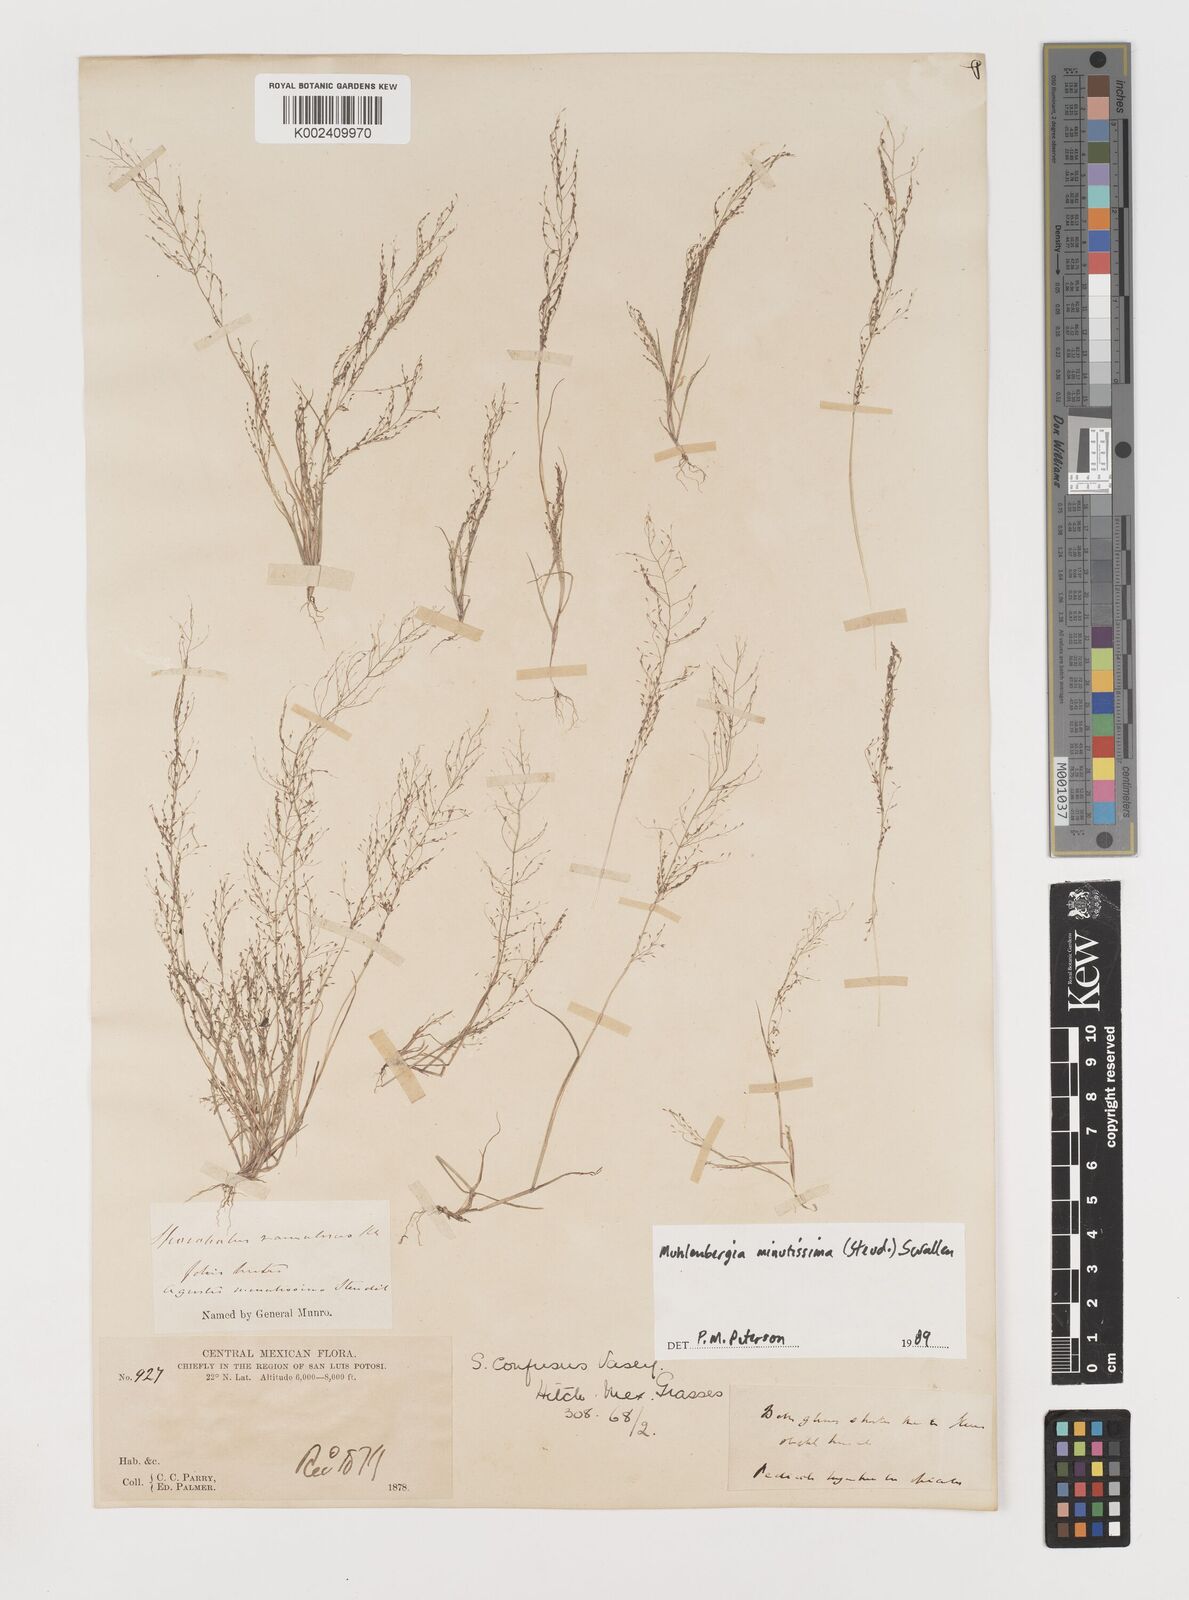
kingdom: Plantae
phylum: Tracheophyta
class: Liliopsida
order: Poales
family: Poaceae
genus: Muhlenbergia
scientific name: Muhlenbergia minutissima
